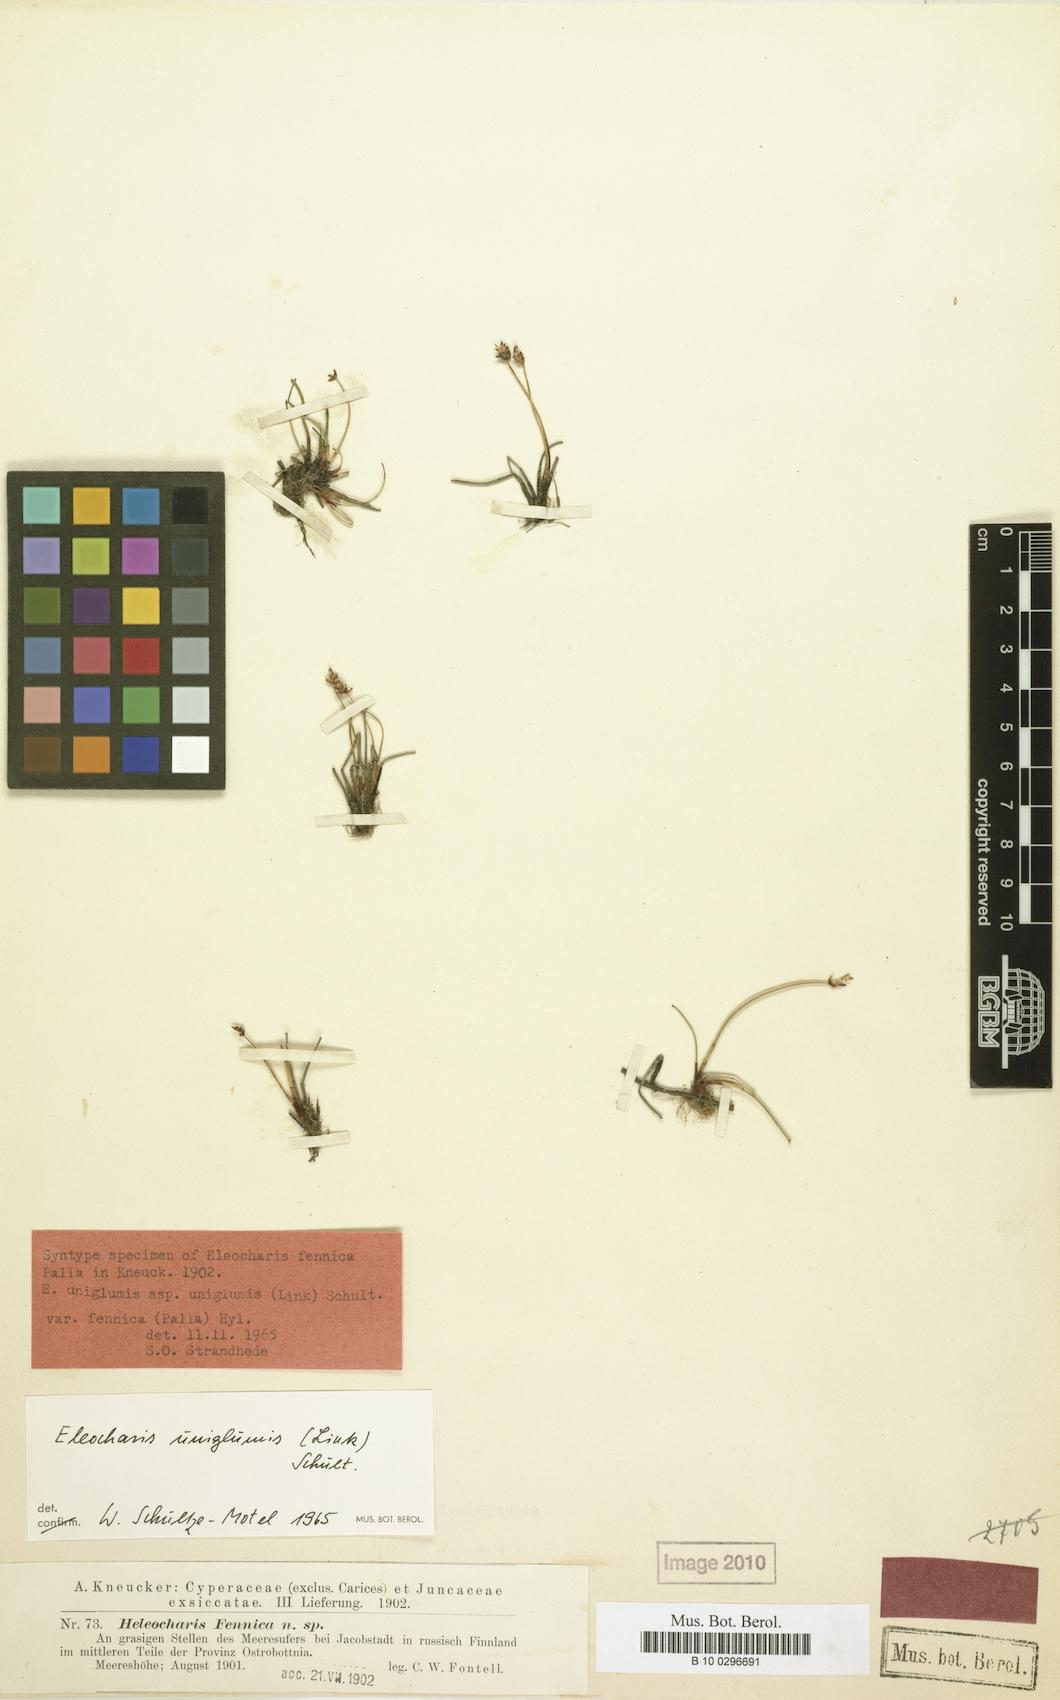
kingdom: Plantae
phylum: Tracheophyta
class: Liliopsida
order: Poales
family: Cyperaceae
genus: Eleocharis
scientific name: Eleocharis uniglumis
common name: Slender spike-rush
